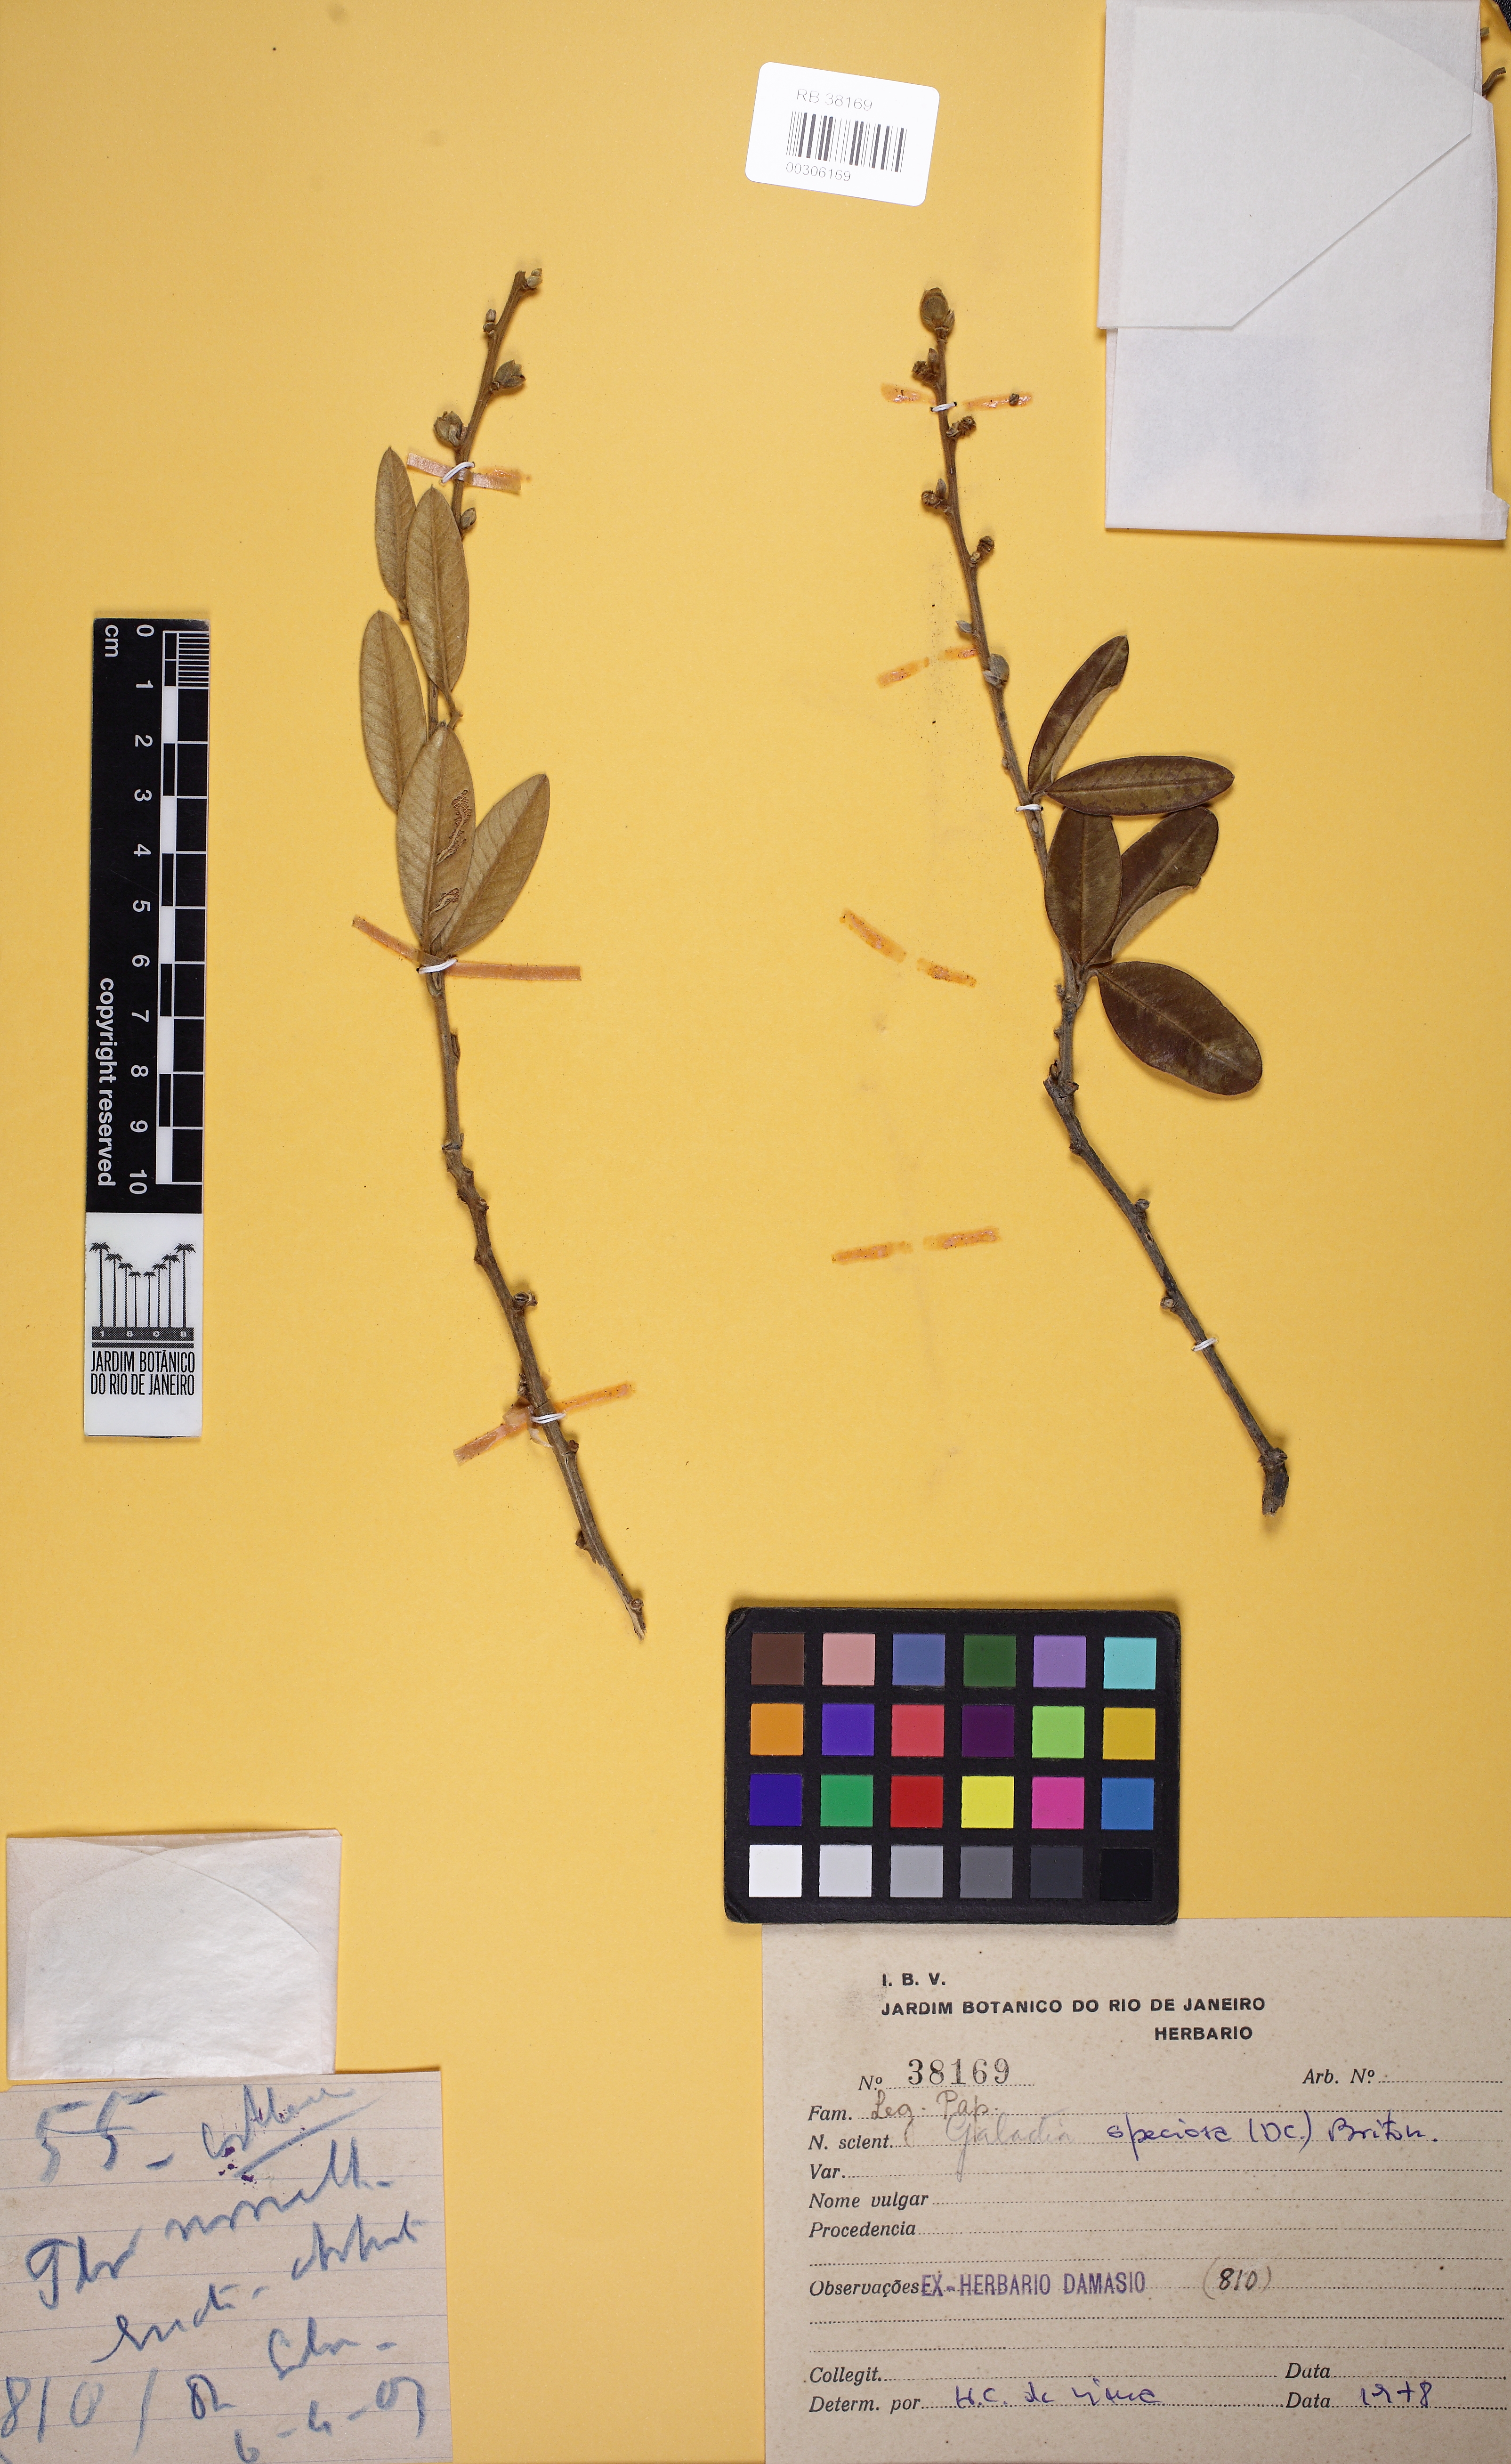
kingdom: Plantae
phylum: Tracheophyta
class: Magnoliopsida
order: Fabales
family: Fabaceae
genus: Collaea
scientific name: Collaea speciosa
